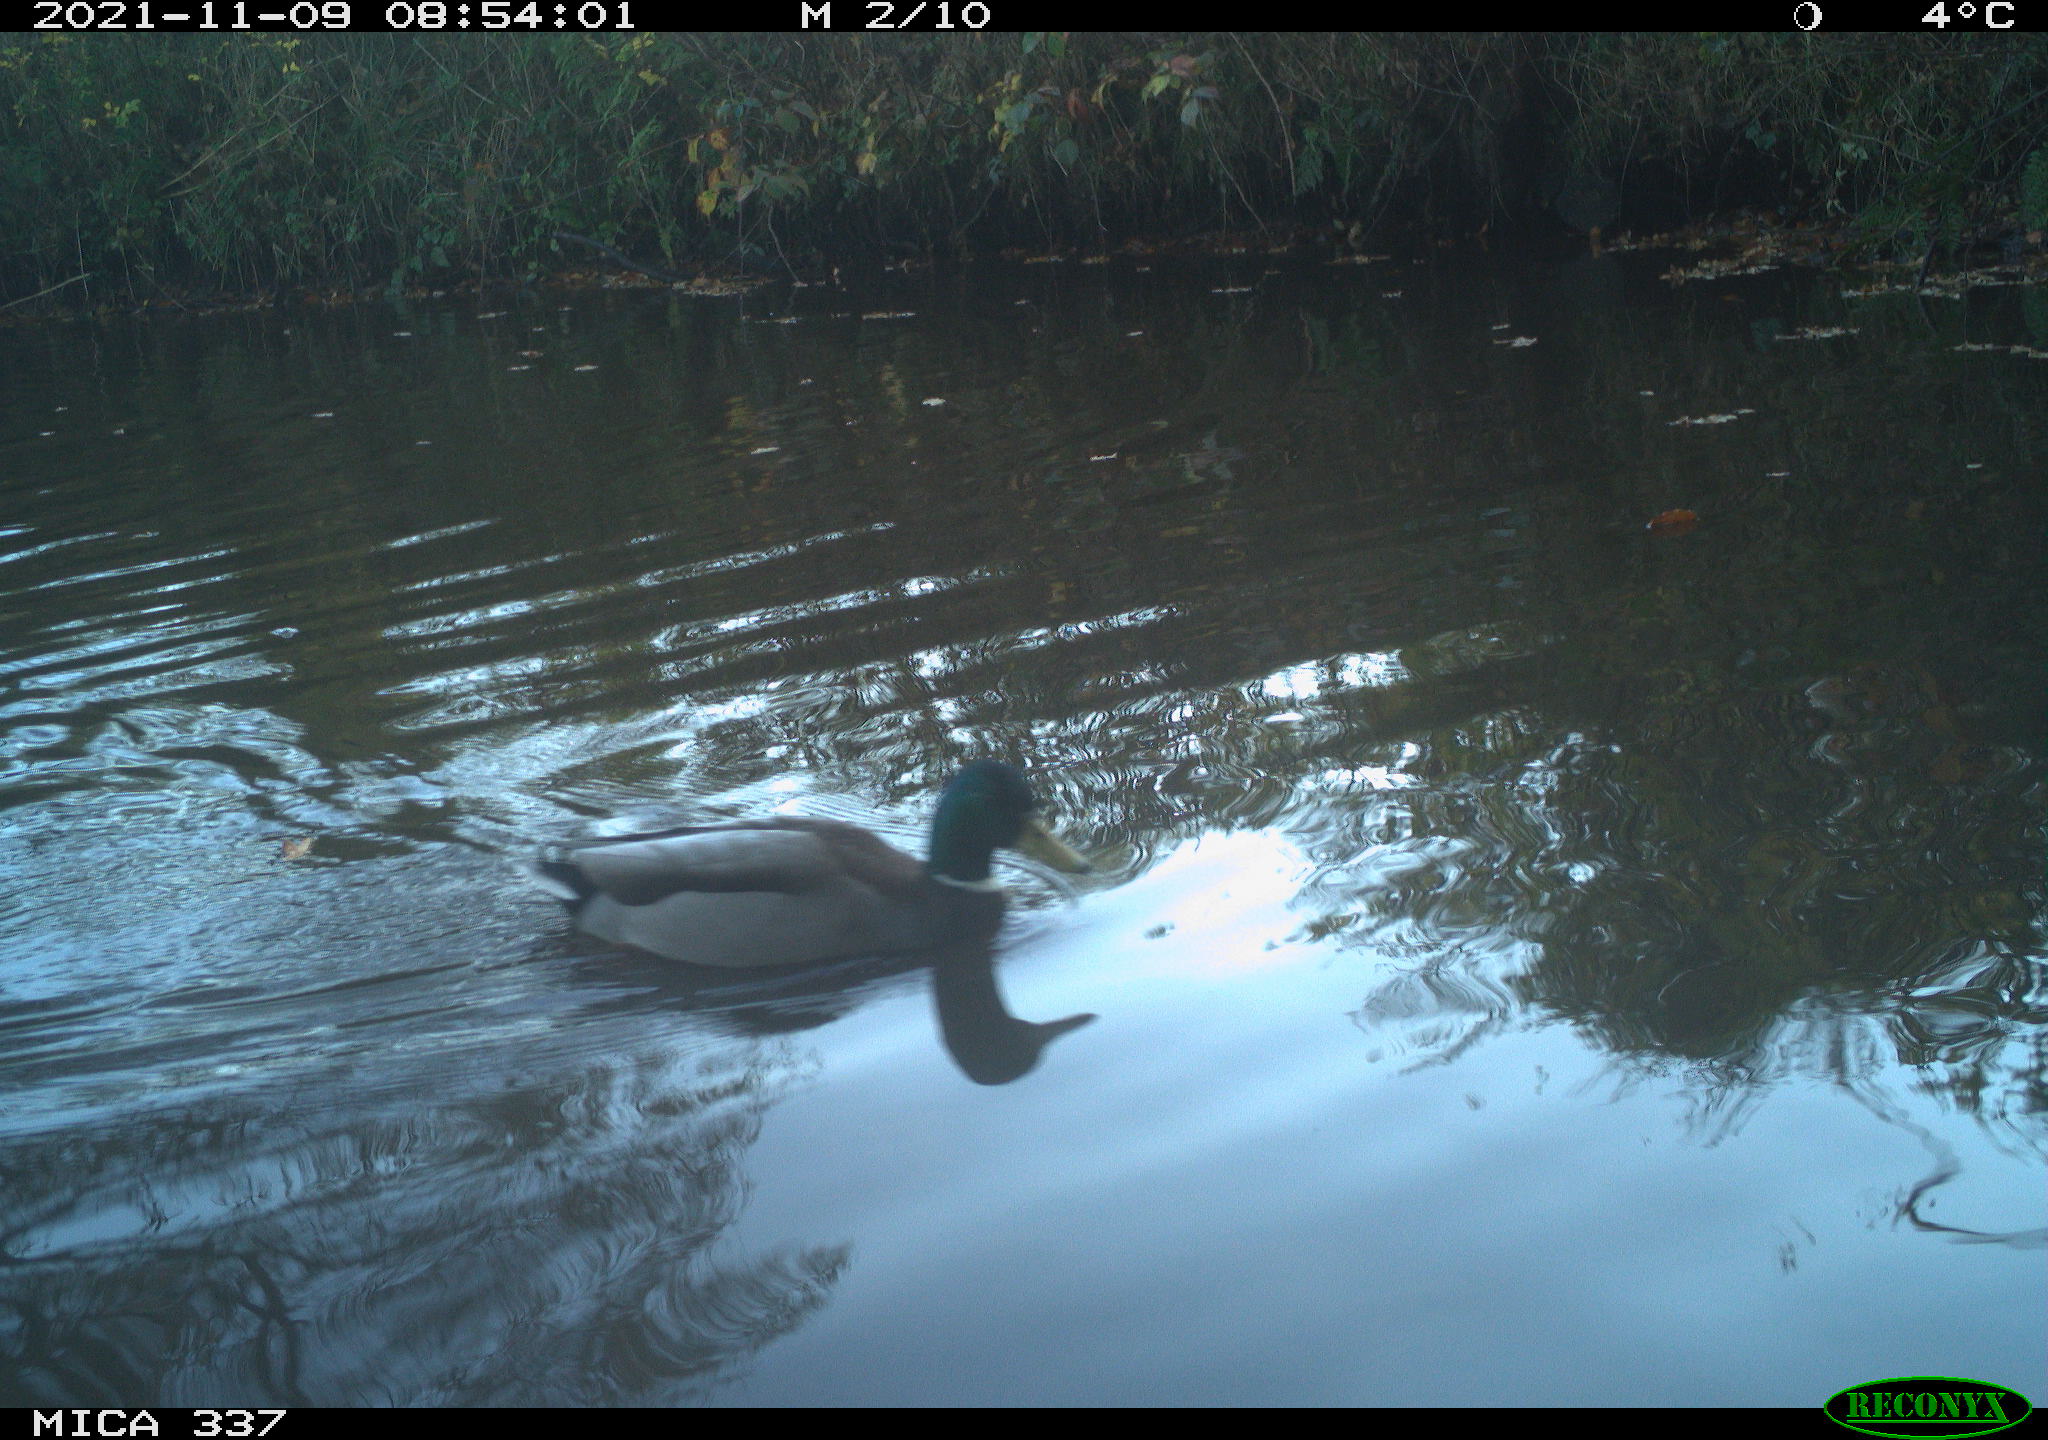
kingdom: Animalia
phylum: Chordata
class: Aves
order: Anseriformes
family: Anatidae
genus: Anas
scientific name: Anas platyrhynchos
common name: Mallard
